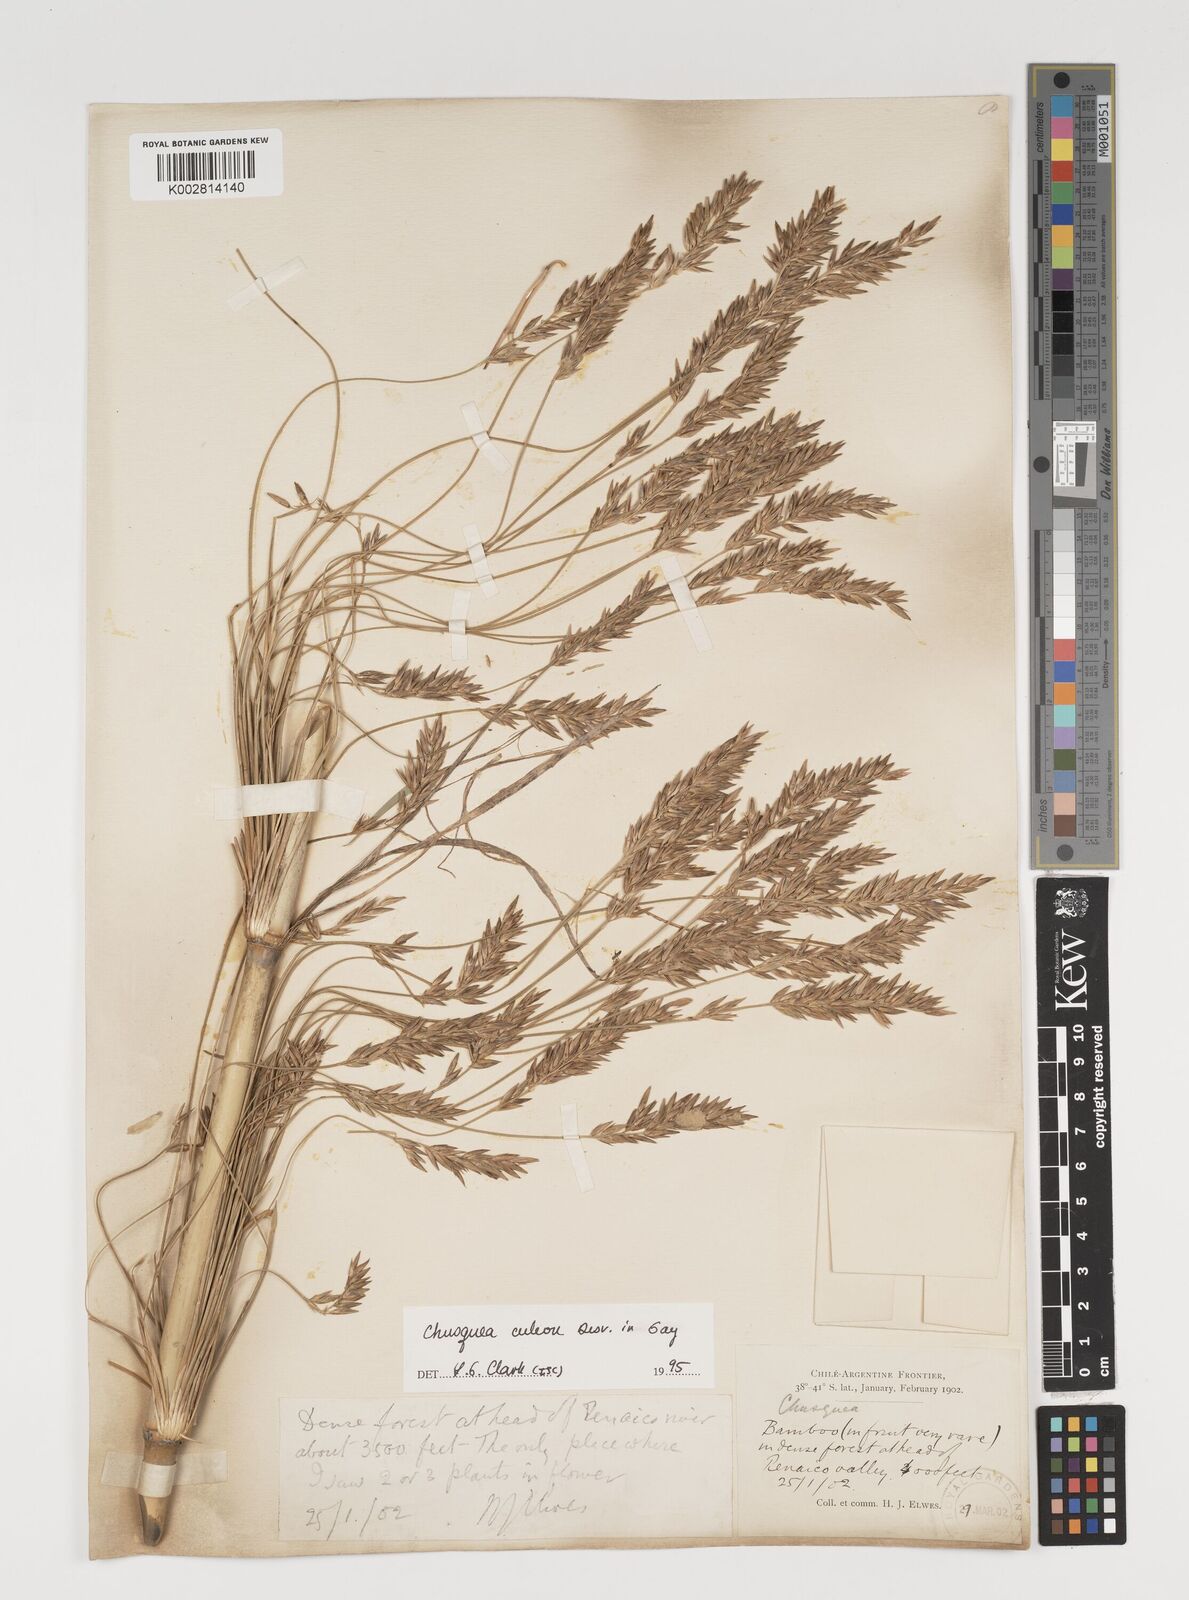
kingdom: Plantae
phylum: Tracheophyta
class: Liliopsida
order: Poales
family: Poaceae
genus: Chusquea
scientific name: Chusquea culeou
